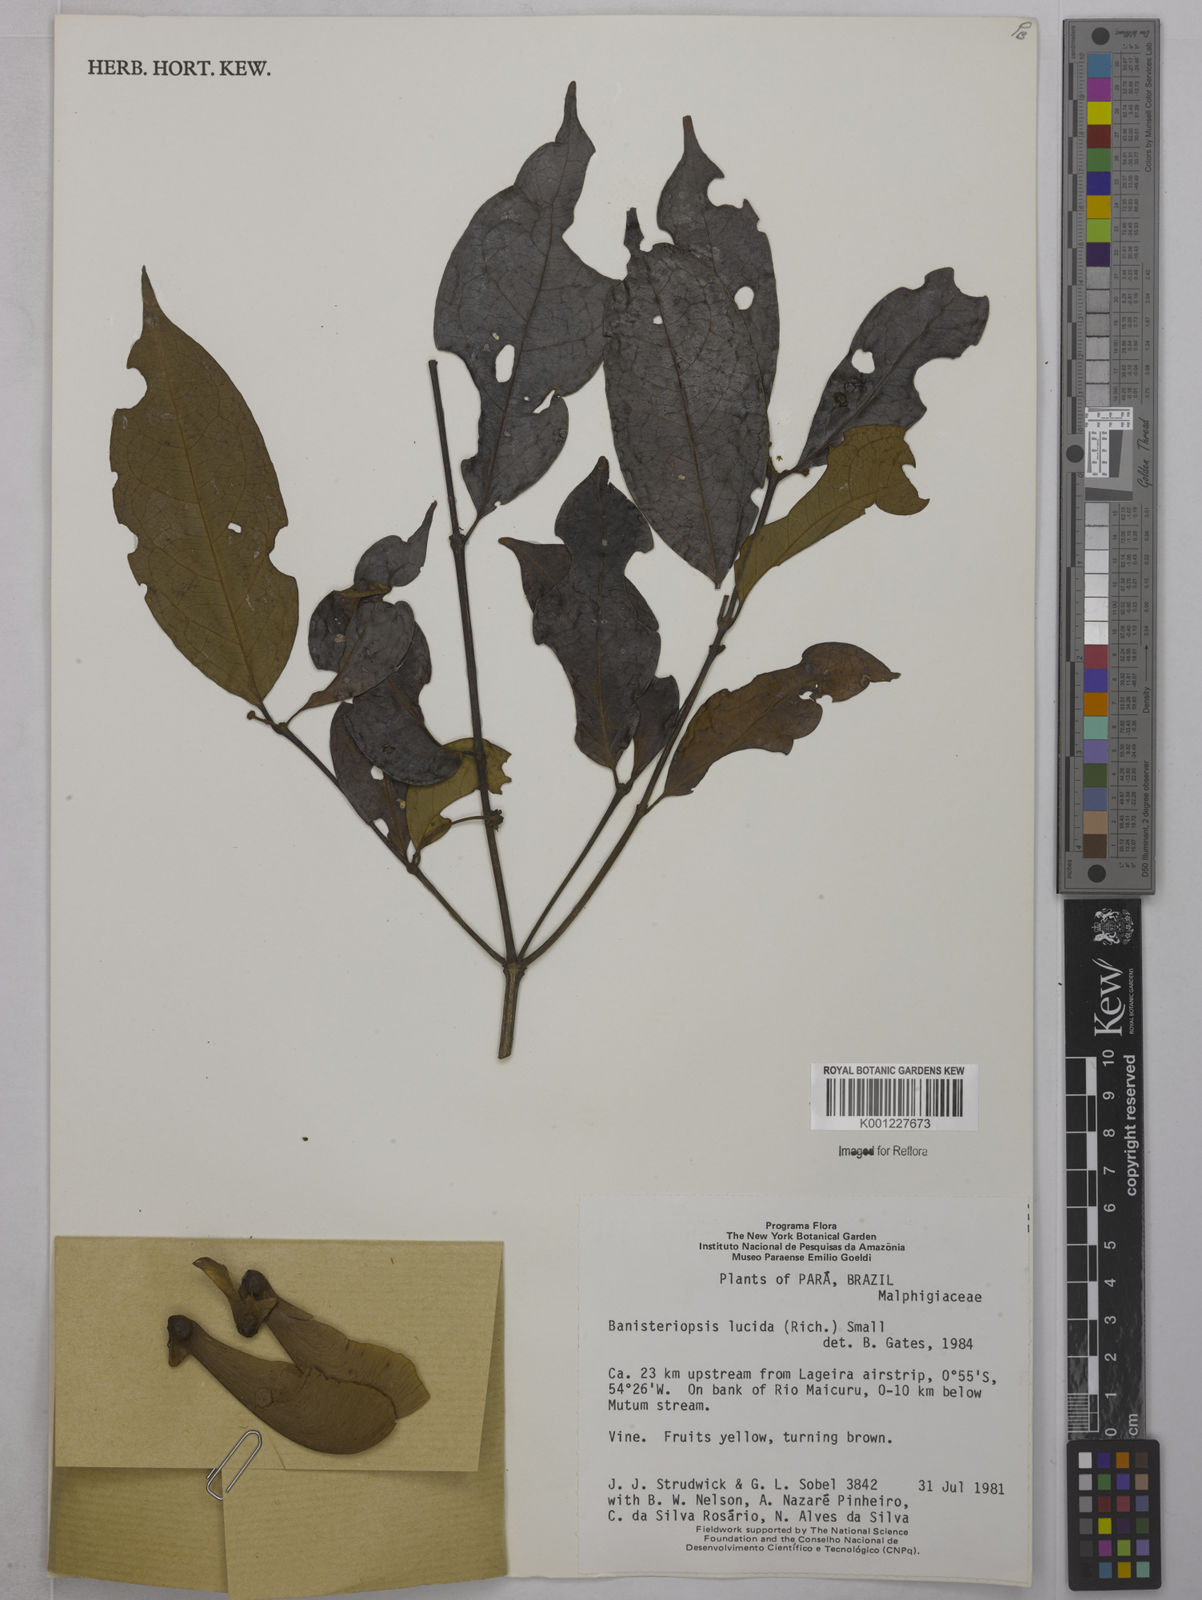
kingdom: Plantae
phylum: Tracheophyta
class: Magnoliopsida
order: Malpighiales
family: Malpighiaceae
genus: Diplopterys
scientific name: Diplopterys lucida
